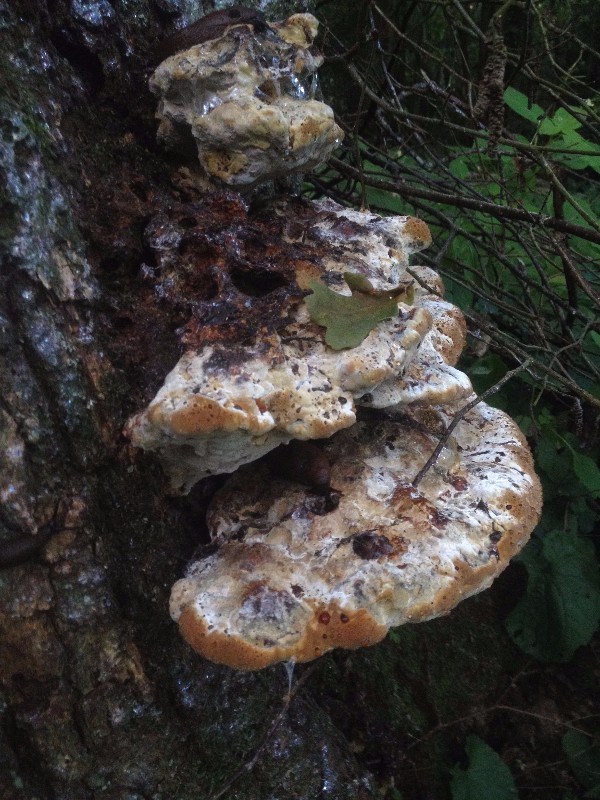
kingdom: Fungi
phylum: Basidiomycota
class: Agaricomycetes
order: Hymenochaetales
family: Hymenochaetaceae
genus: Pseudoinonotus
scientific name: Pseudoinonotus dryadeus
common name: ege-spejlporesvamp
